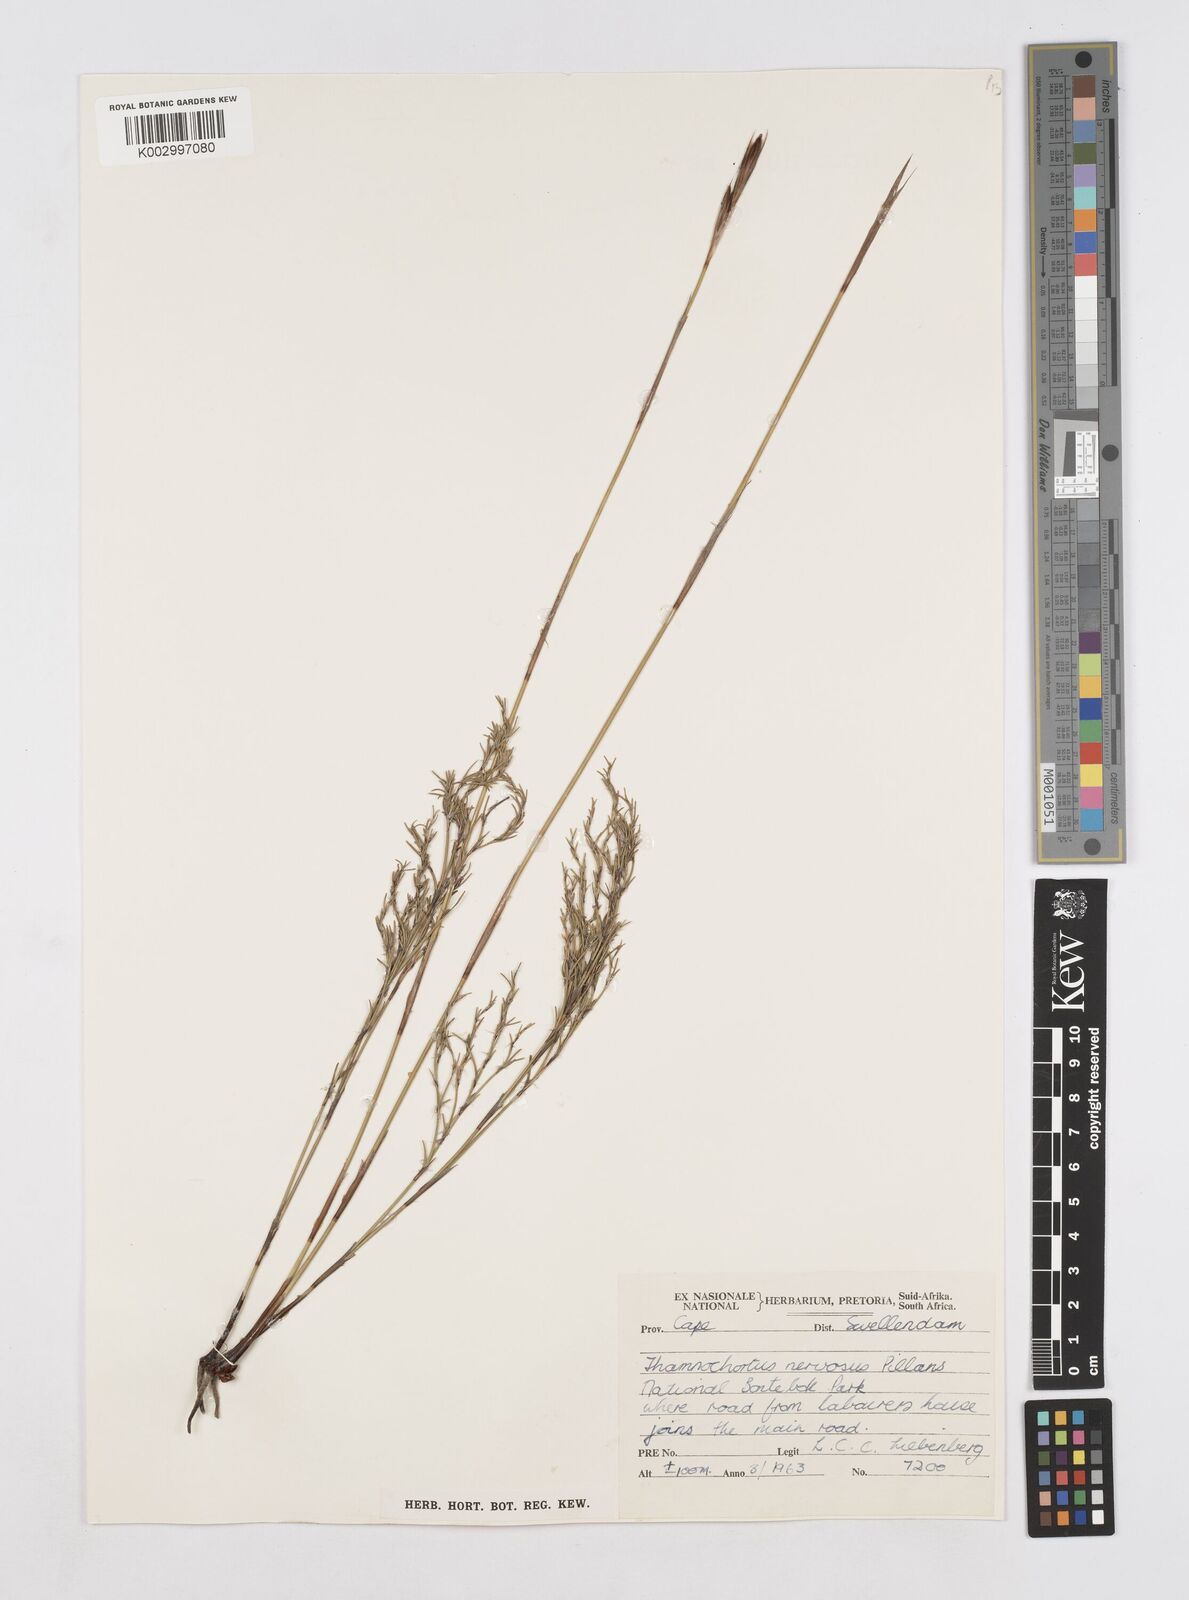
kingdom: Plantae
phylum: Tracheophyta
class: Liliopsida
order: Poales
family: Restionaceae
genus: Thamnochortus
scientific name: Thamnochortus guthrieae
